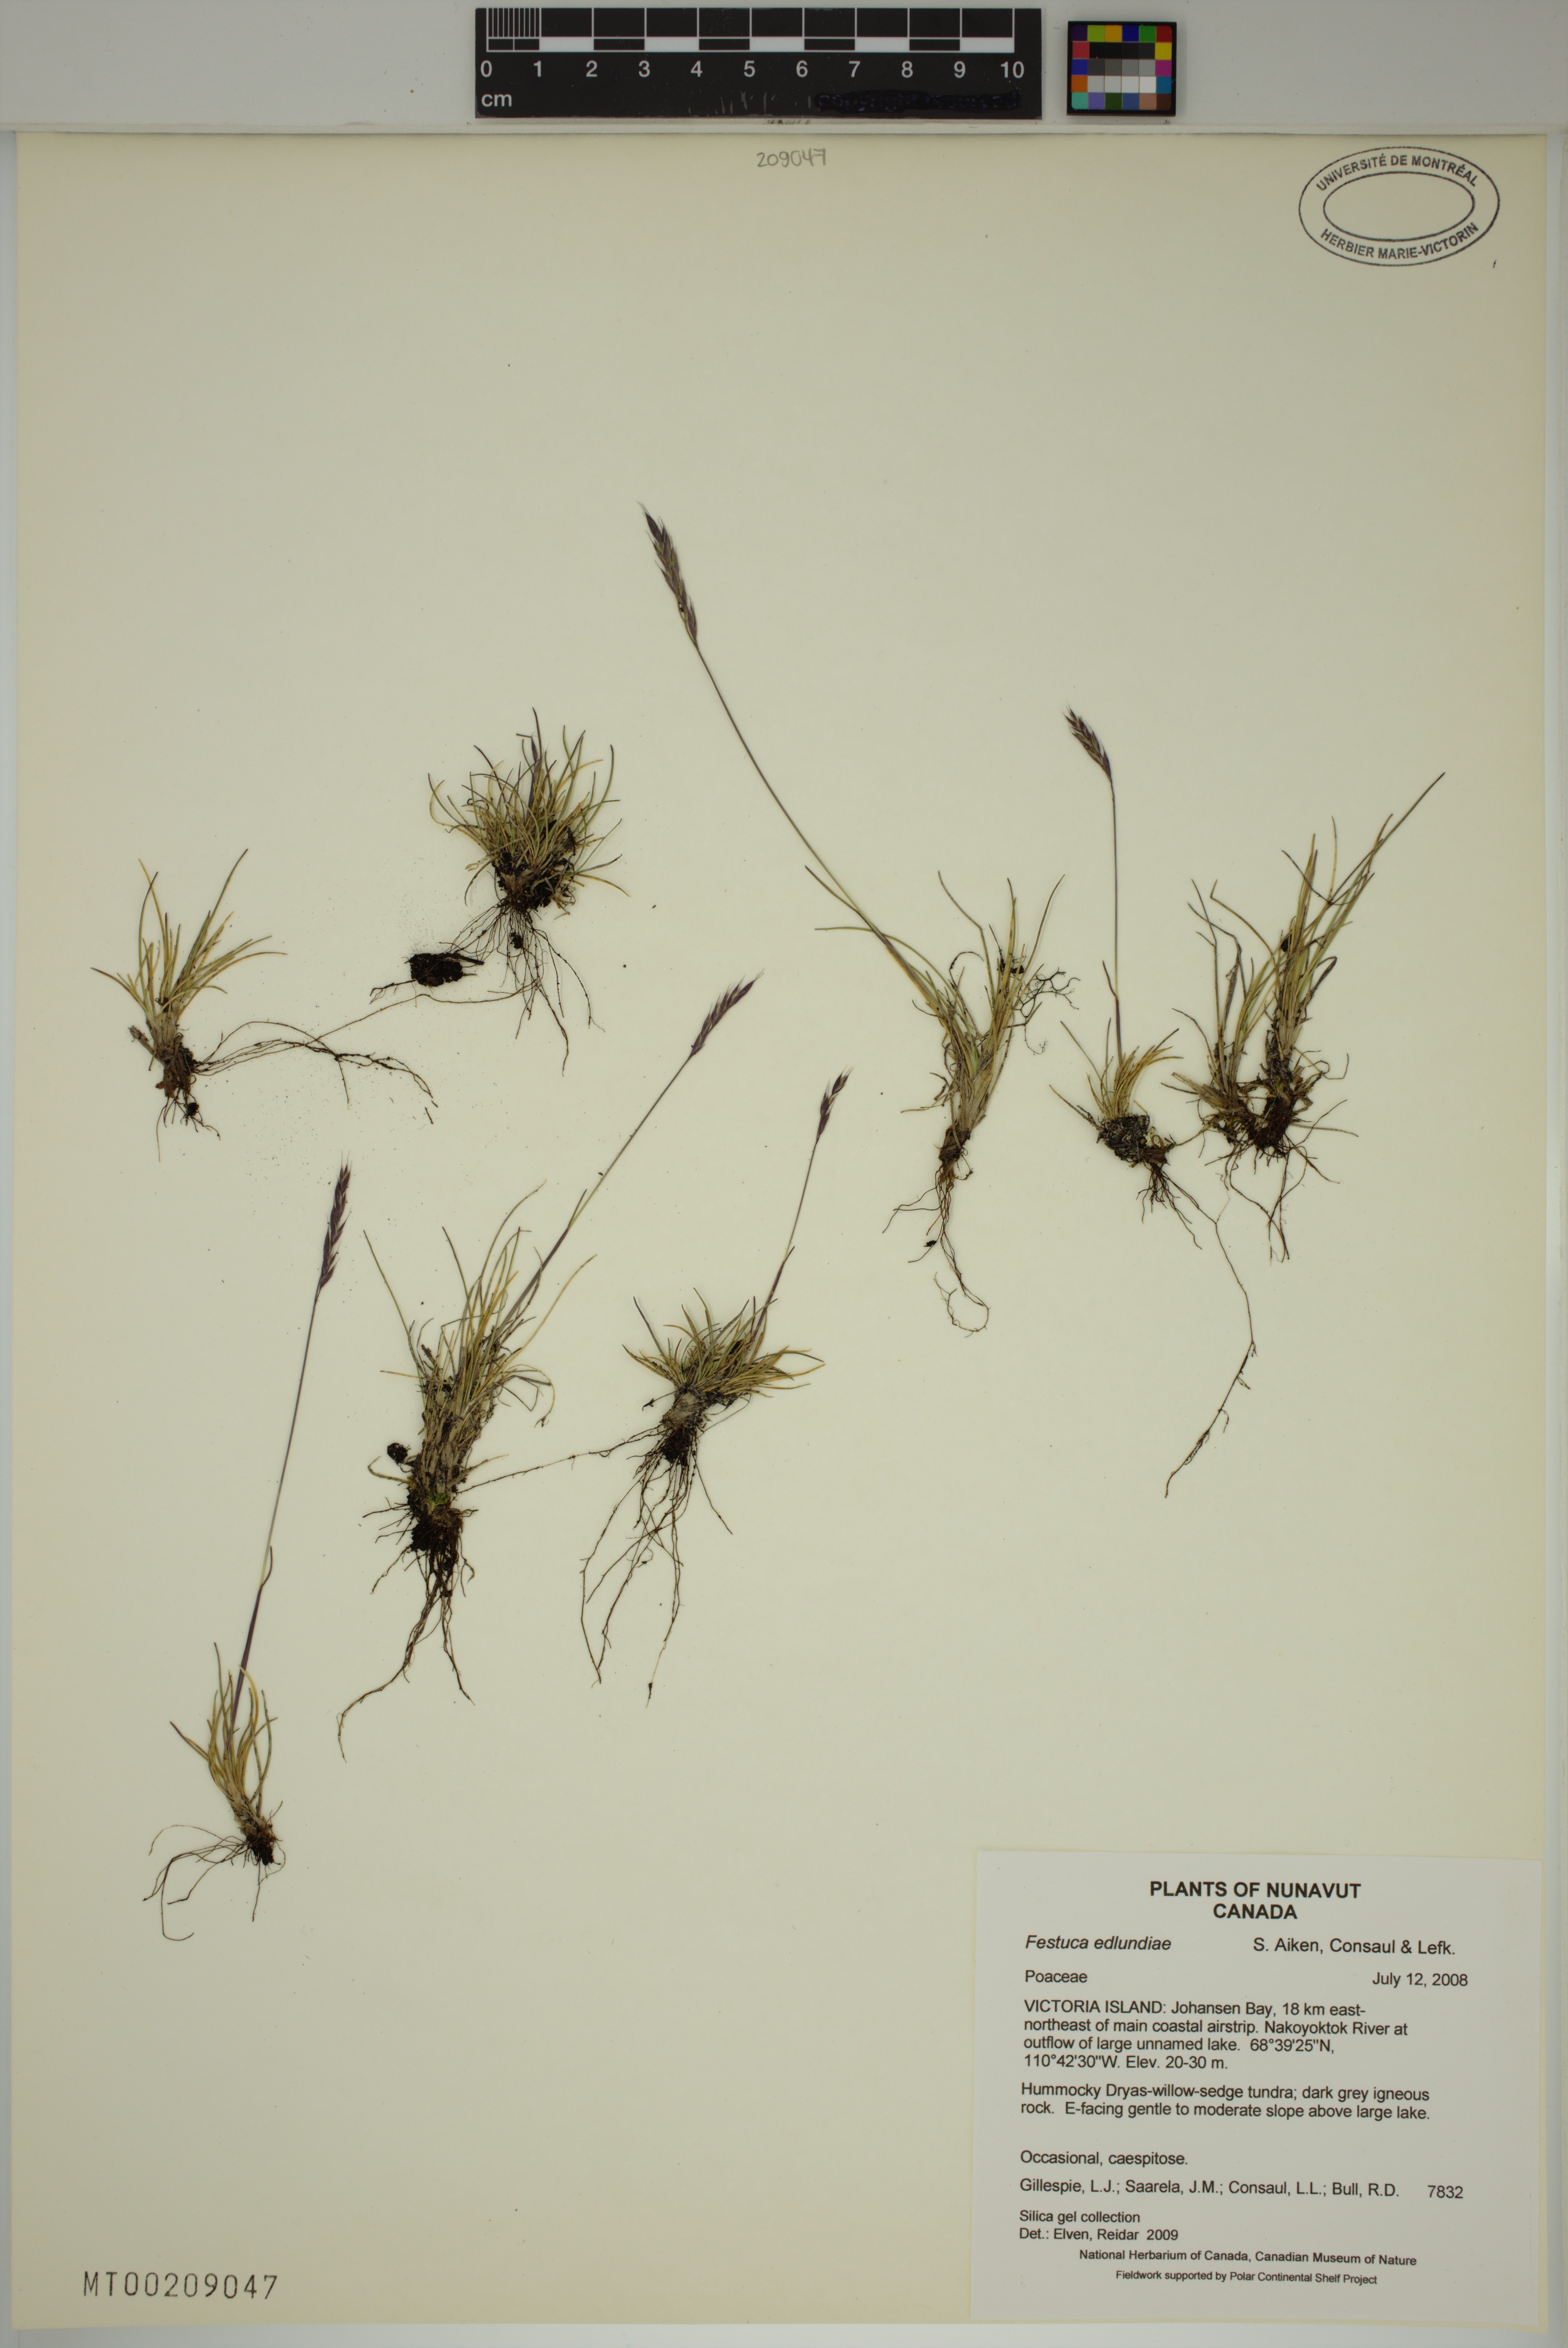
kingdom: Plantae
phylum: Tracheophyta
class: Liliopsida
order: Poales
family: Poaceae
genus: Festuca
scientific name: Festuca edlundiae
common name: Edlund's fescue
